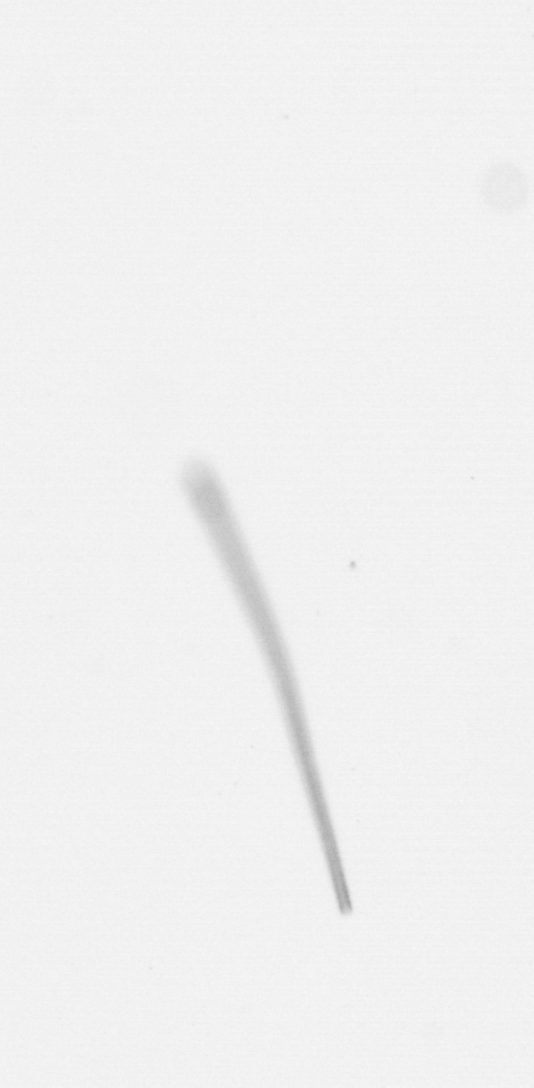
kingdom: Chromista
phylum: Ochrophyta
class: Bacillariophyceae
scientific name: Bacillariophyceae
